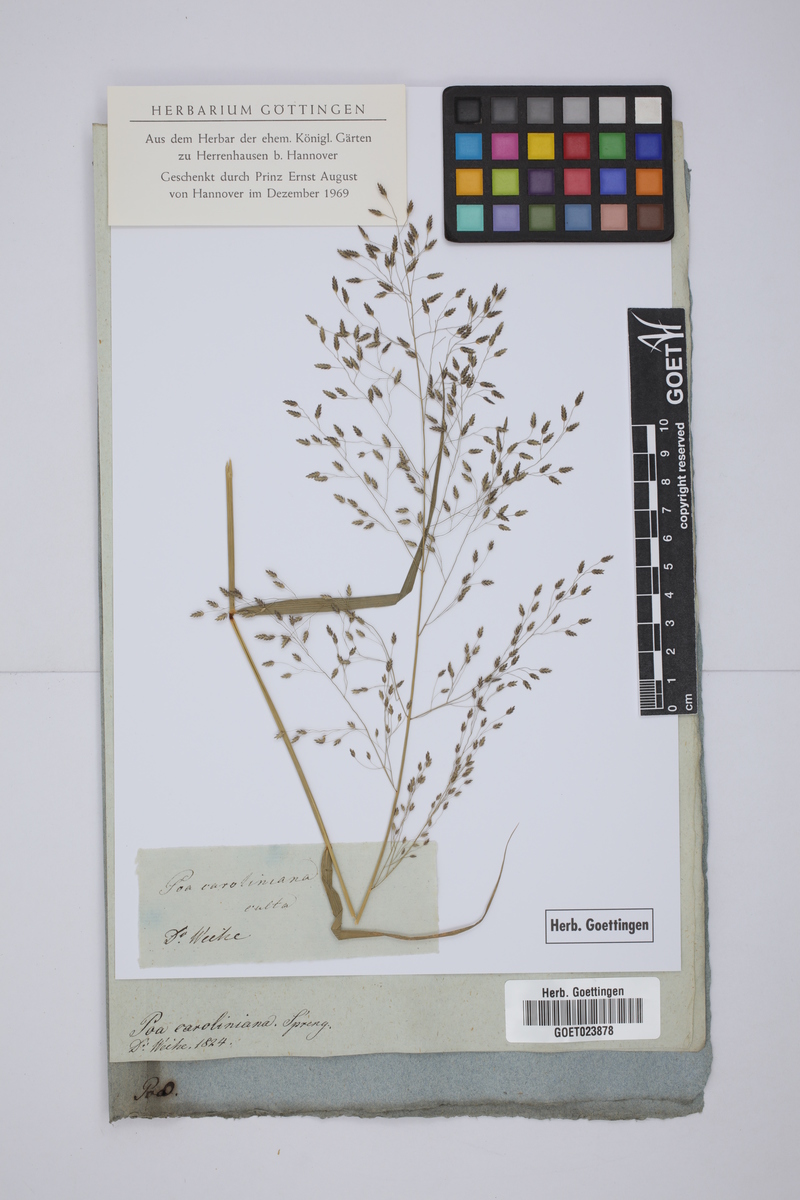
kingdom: Plantae
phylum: Tracheophyta
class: Liliopsida
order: Poales
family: Poaceae
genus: Eragrostis
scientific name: Eragrostis pectinacea
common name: Tufted lovegrass
